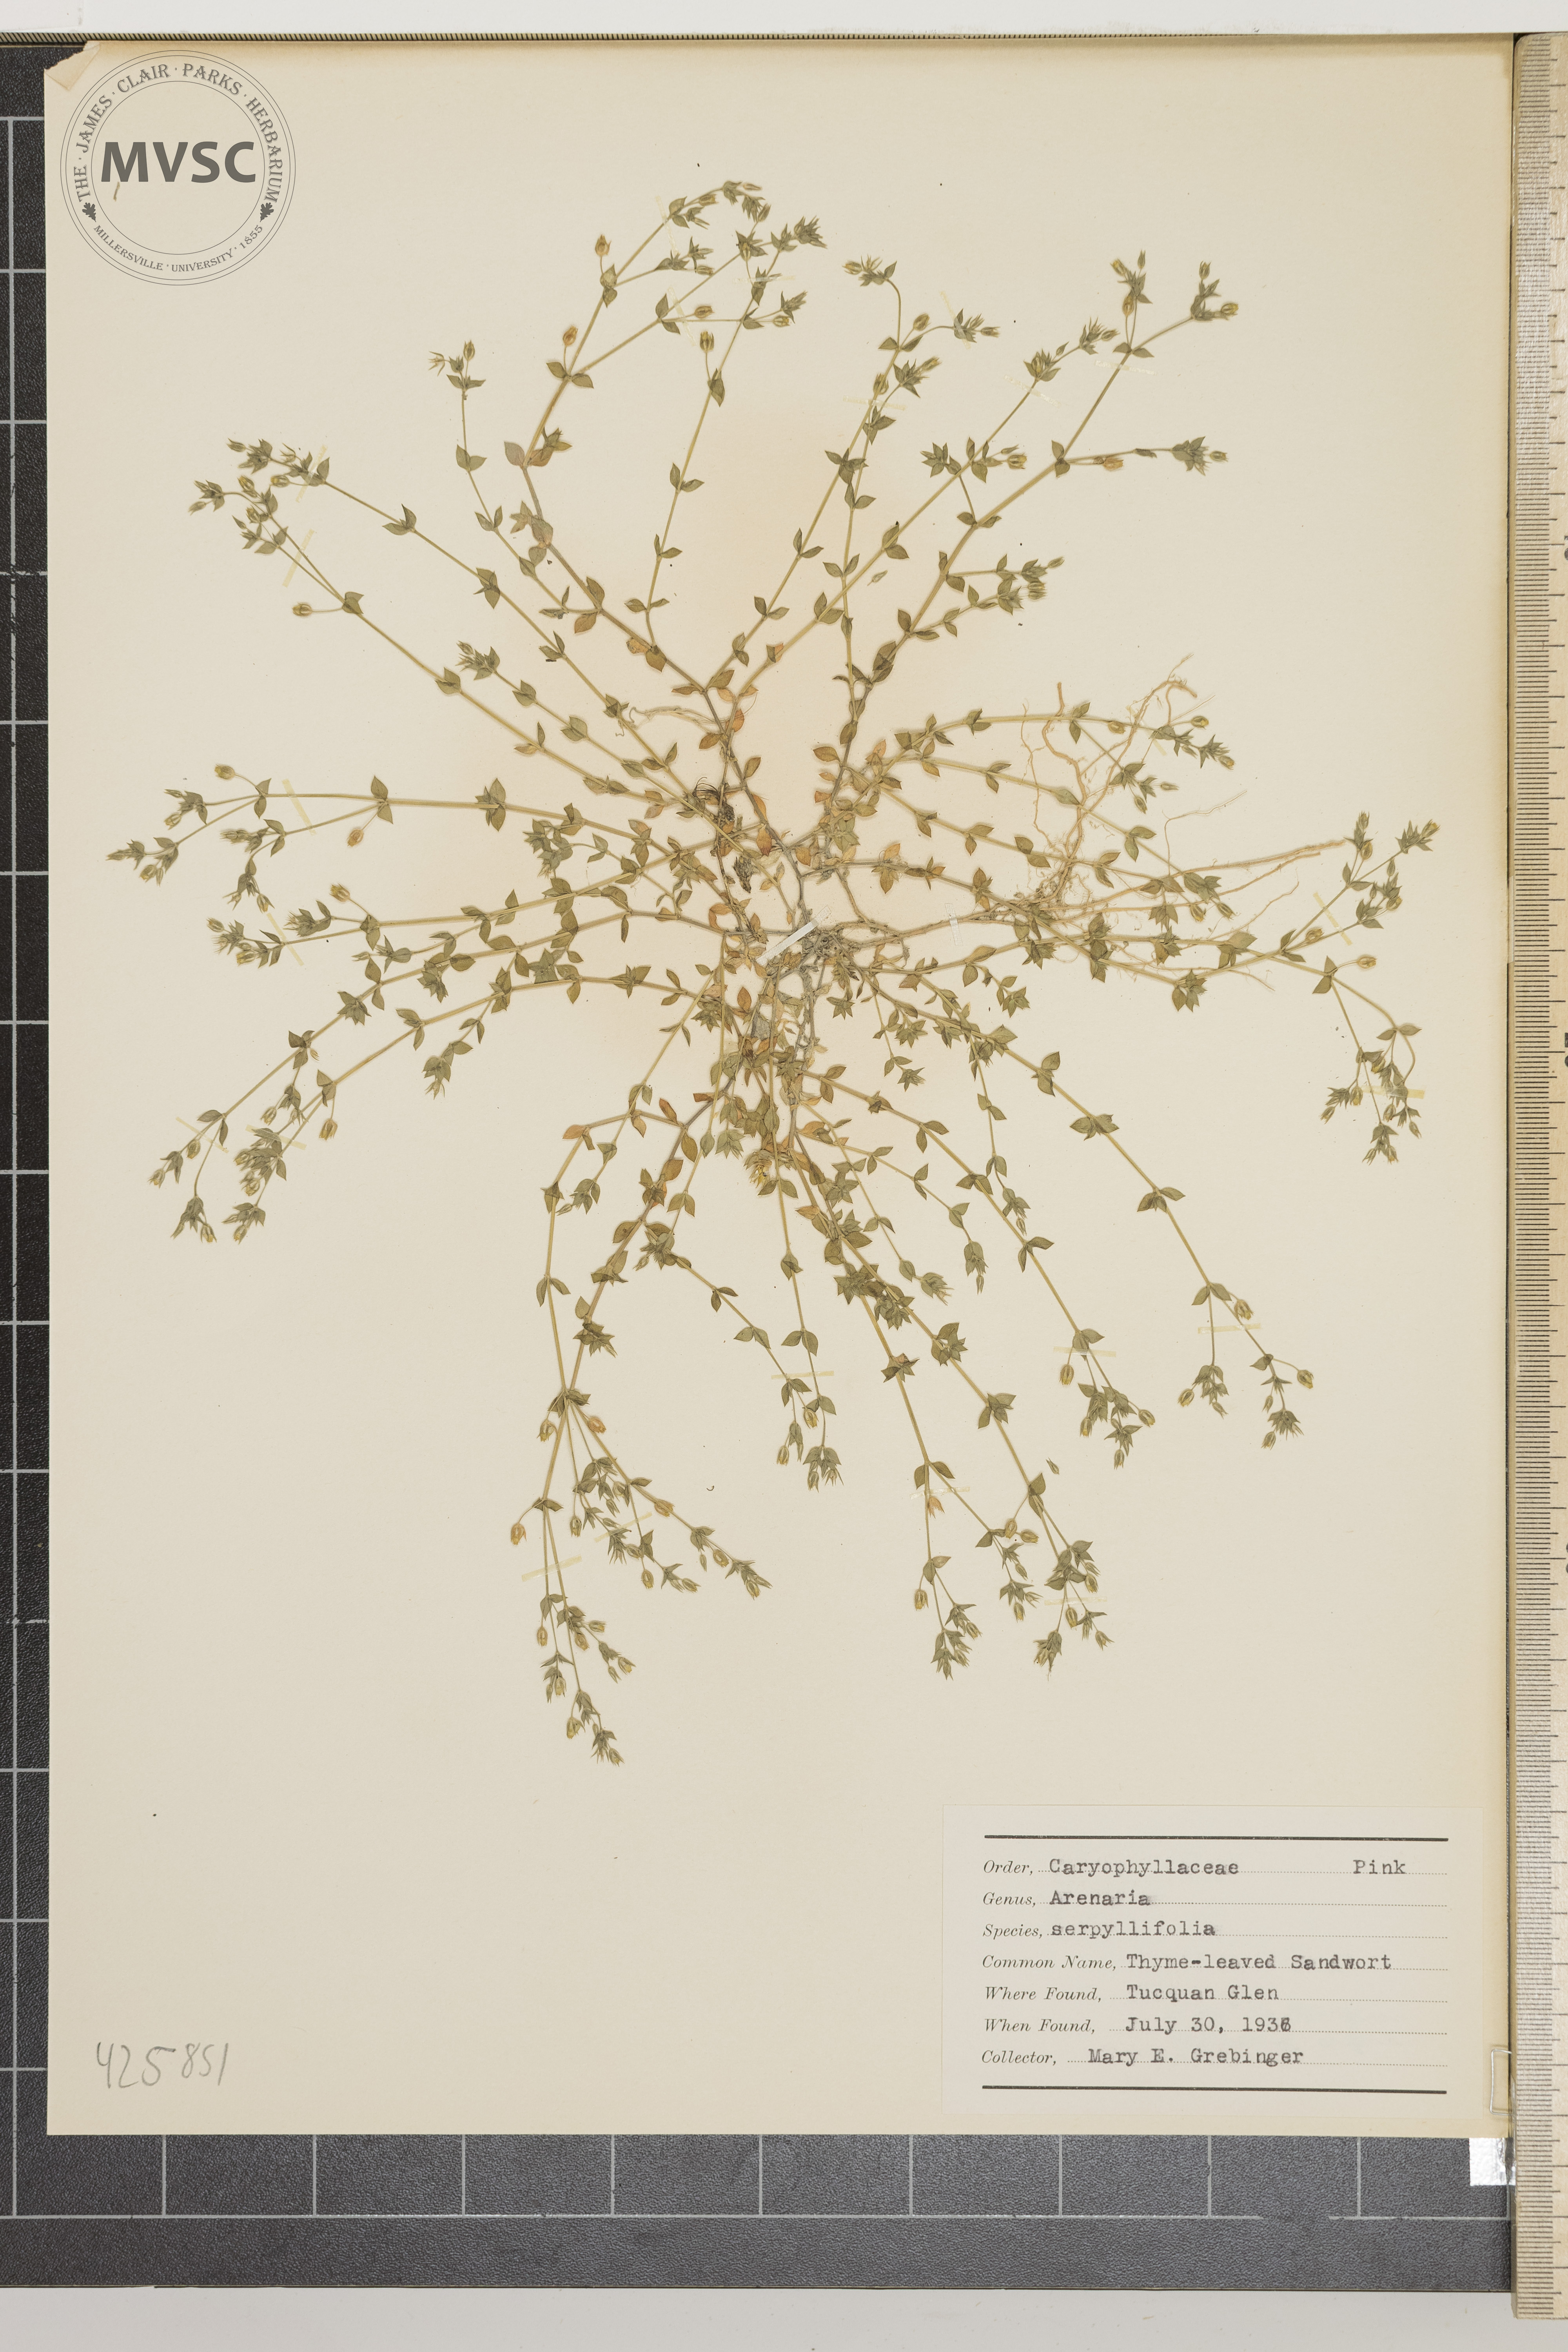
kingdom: Plantae
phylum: Tracheophyta
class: Magnoliopsida
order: Caryophyllales
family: Caryophyllaceae
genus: Arenaria
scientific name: Arenaria serpyllifolia
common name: Thyme-leaved sandwort
